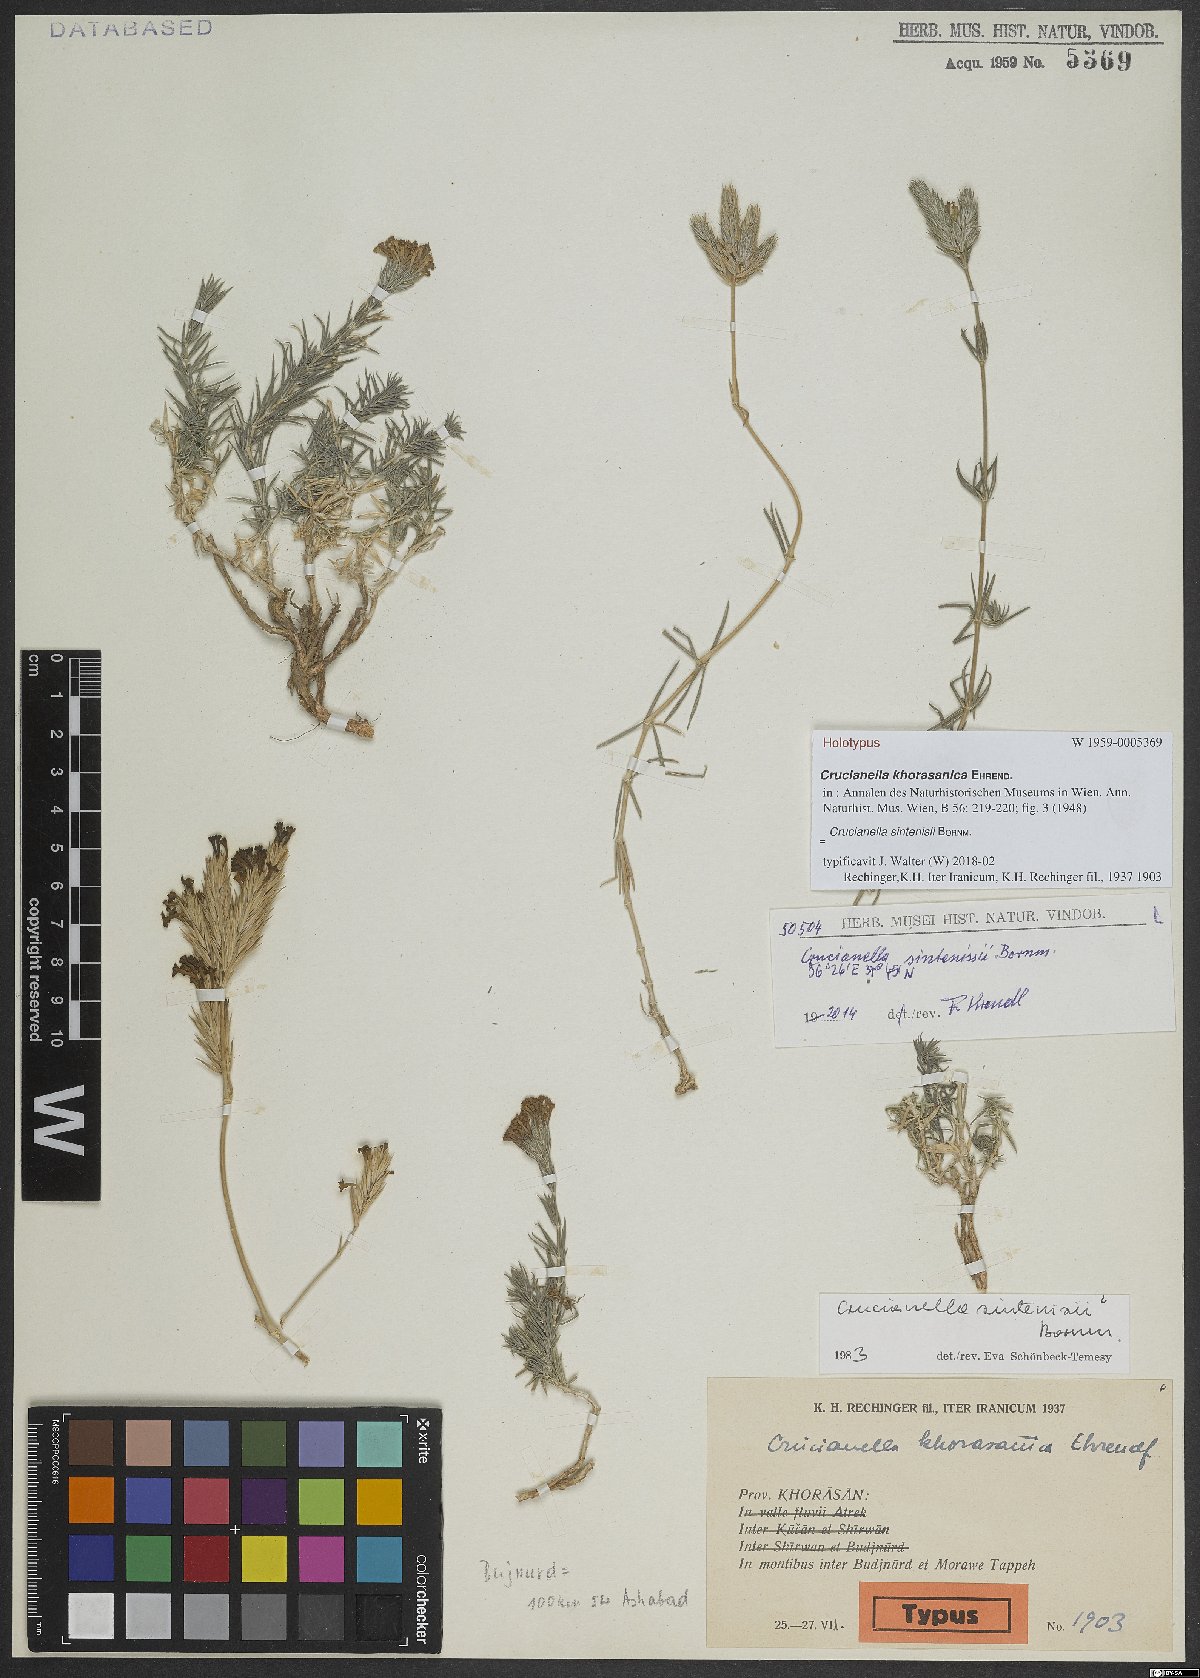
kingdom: Plantae
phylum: Tracheophyta
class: Magnoliopsida
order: Gentianales
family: Rubiaceae
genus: Crucianella
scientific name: Crucianella sintenisii
